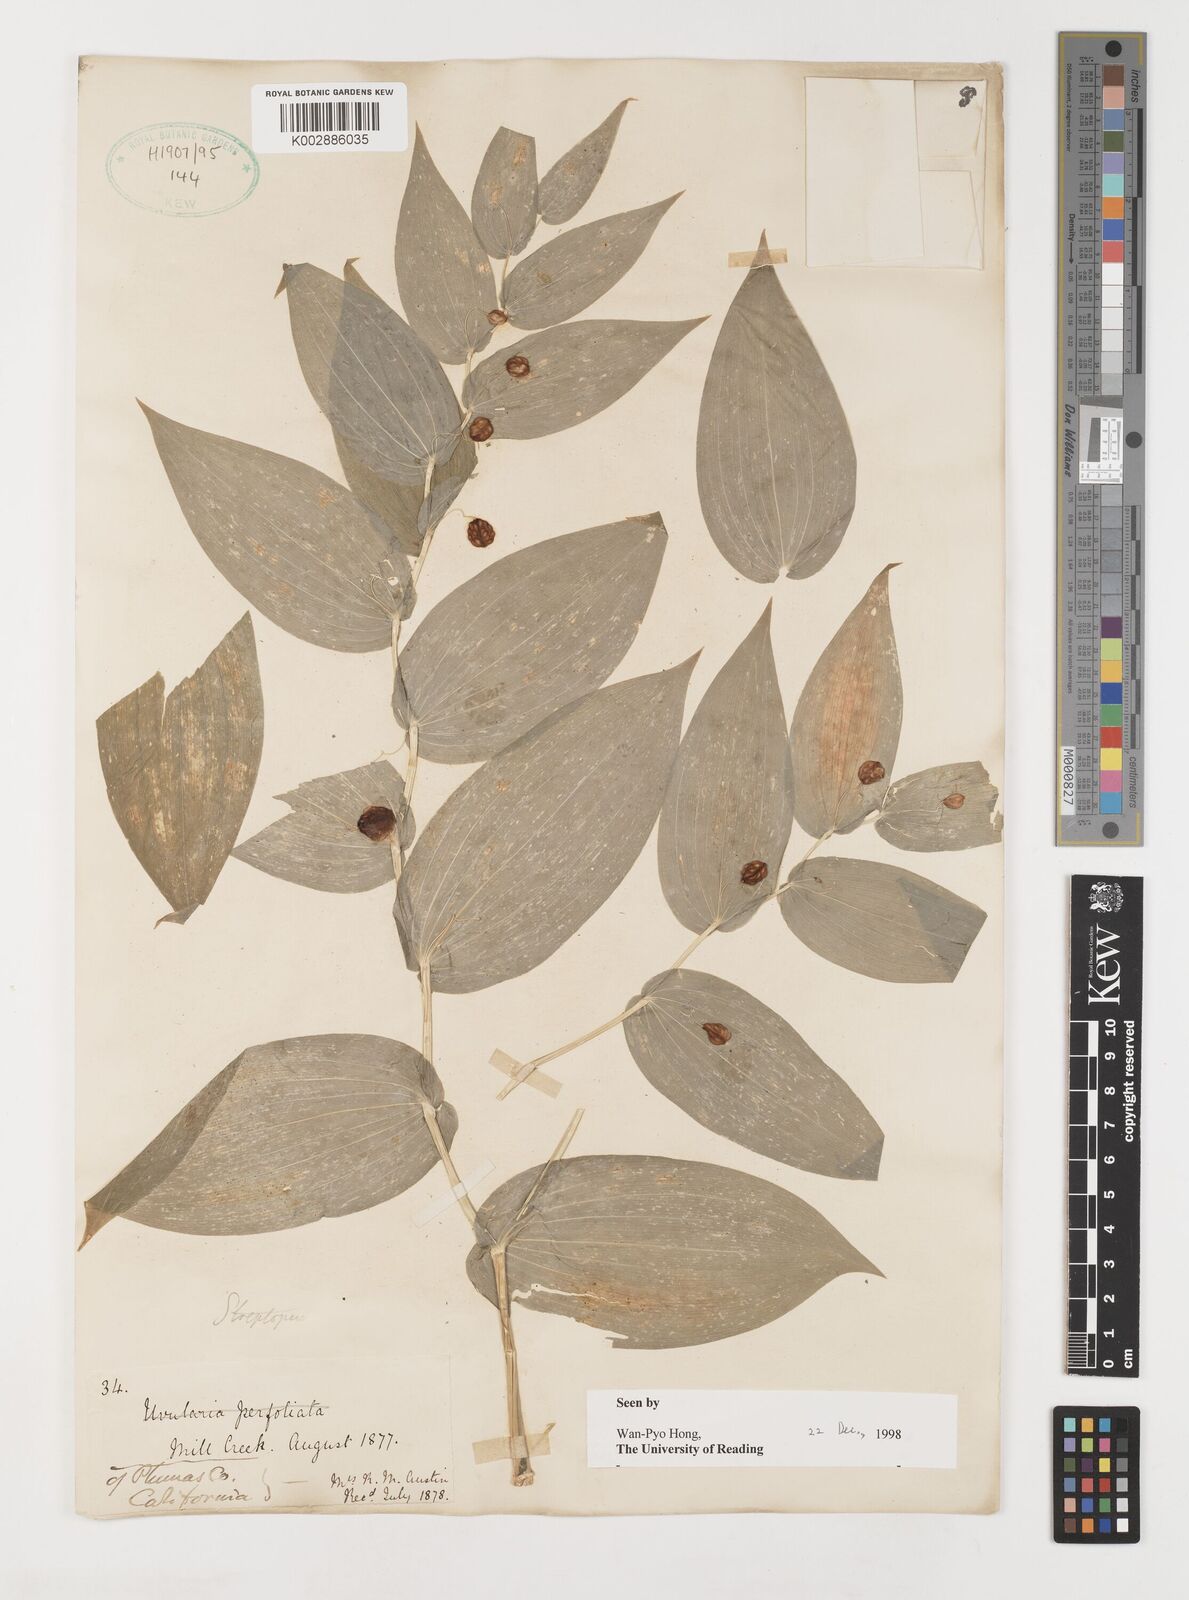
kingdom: Plantae
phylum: Tracheophyta
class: Liliopsida
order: Liliales
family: Liliaceae
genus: Streptopus
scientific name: Streptopus
